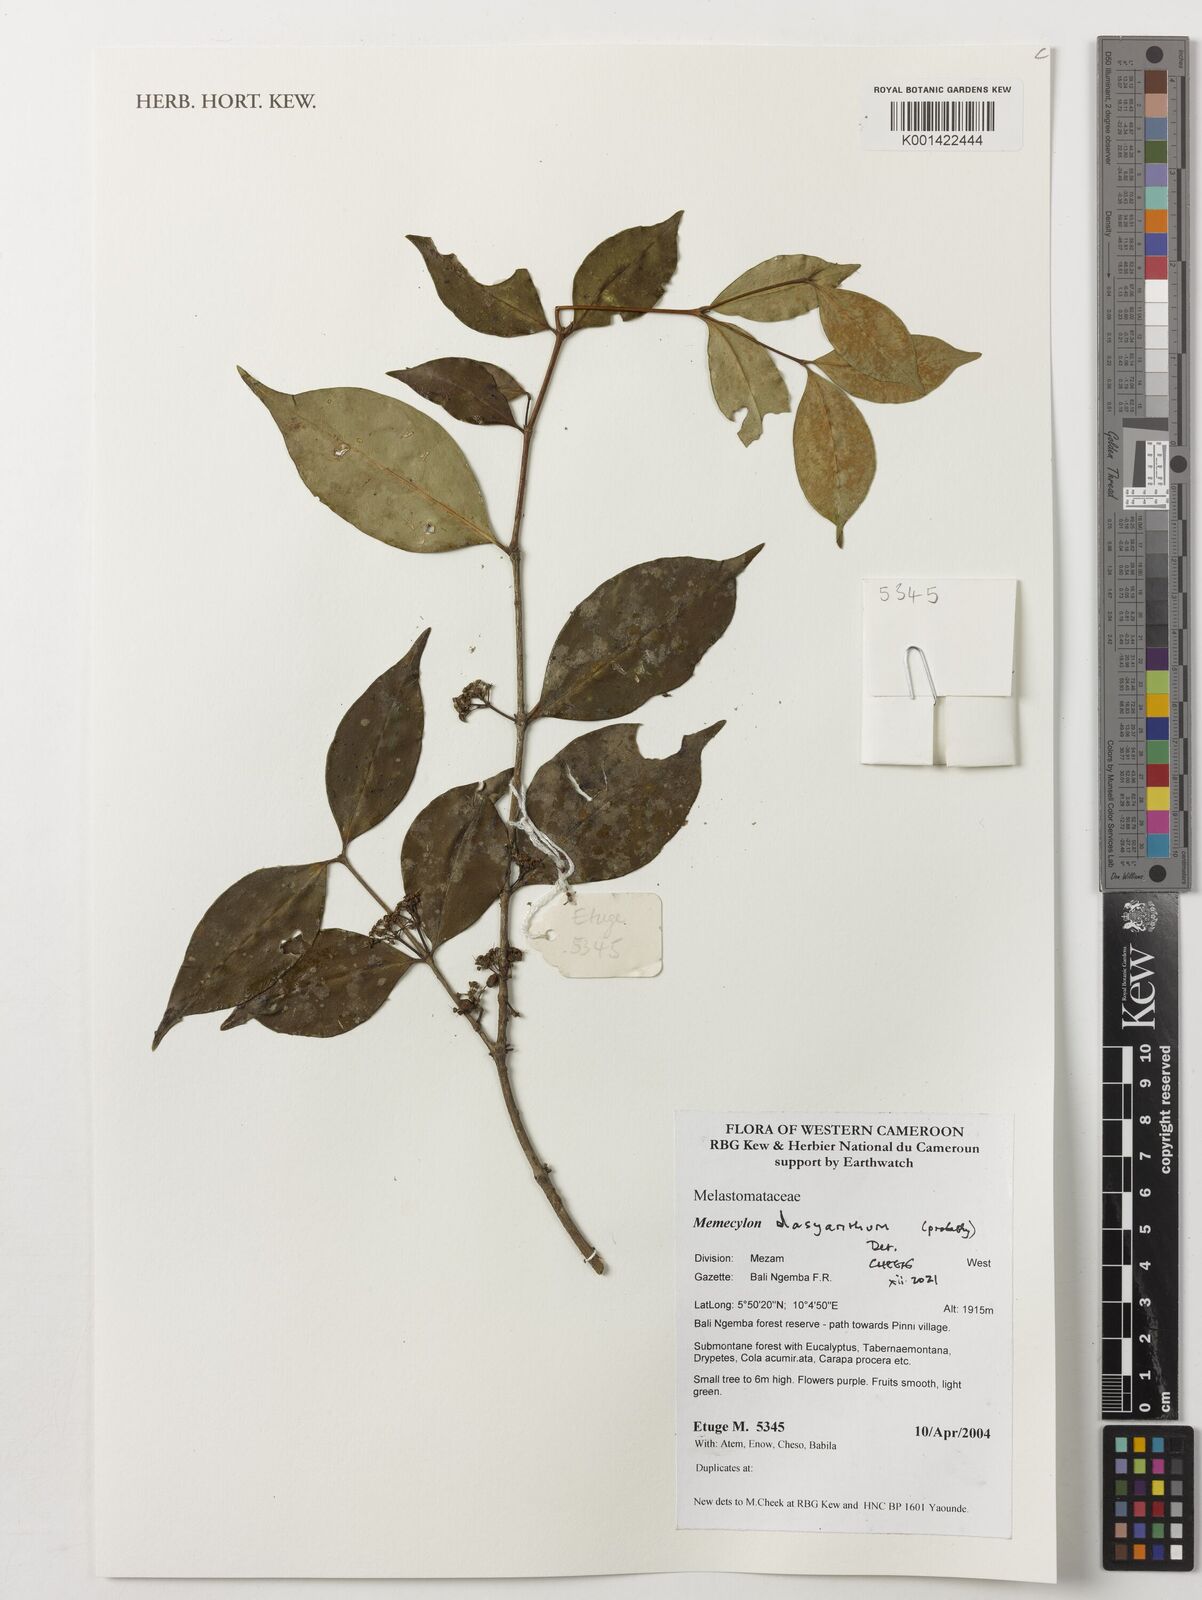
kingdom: Plantae
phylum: Tracheophyta
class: Magnoliopsida
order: Myrtales
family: Melastomataceae
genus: Memecylon
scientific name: Memecylon dasyanthum
